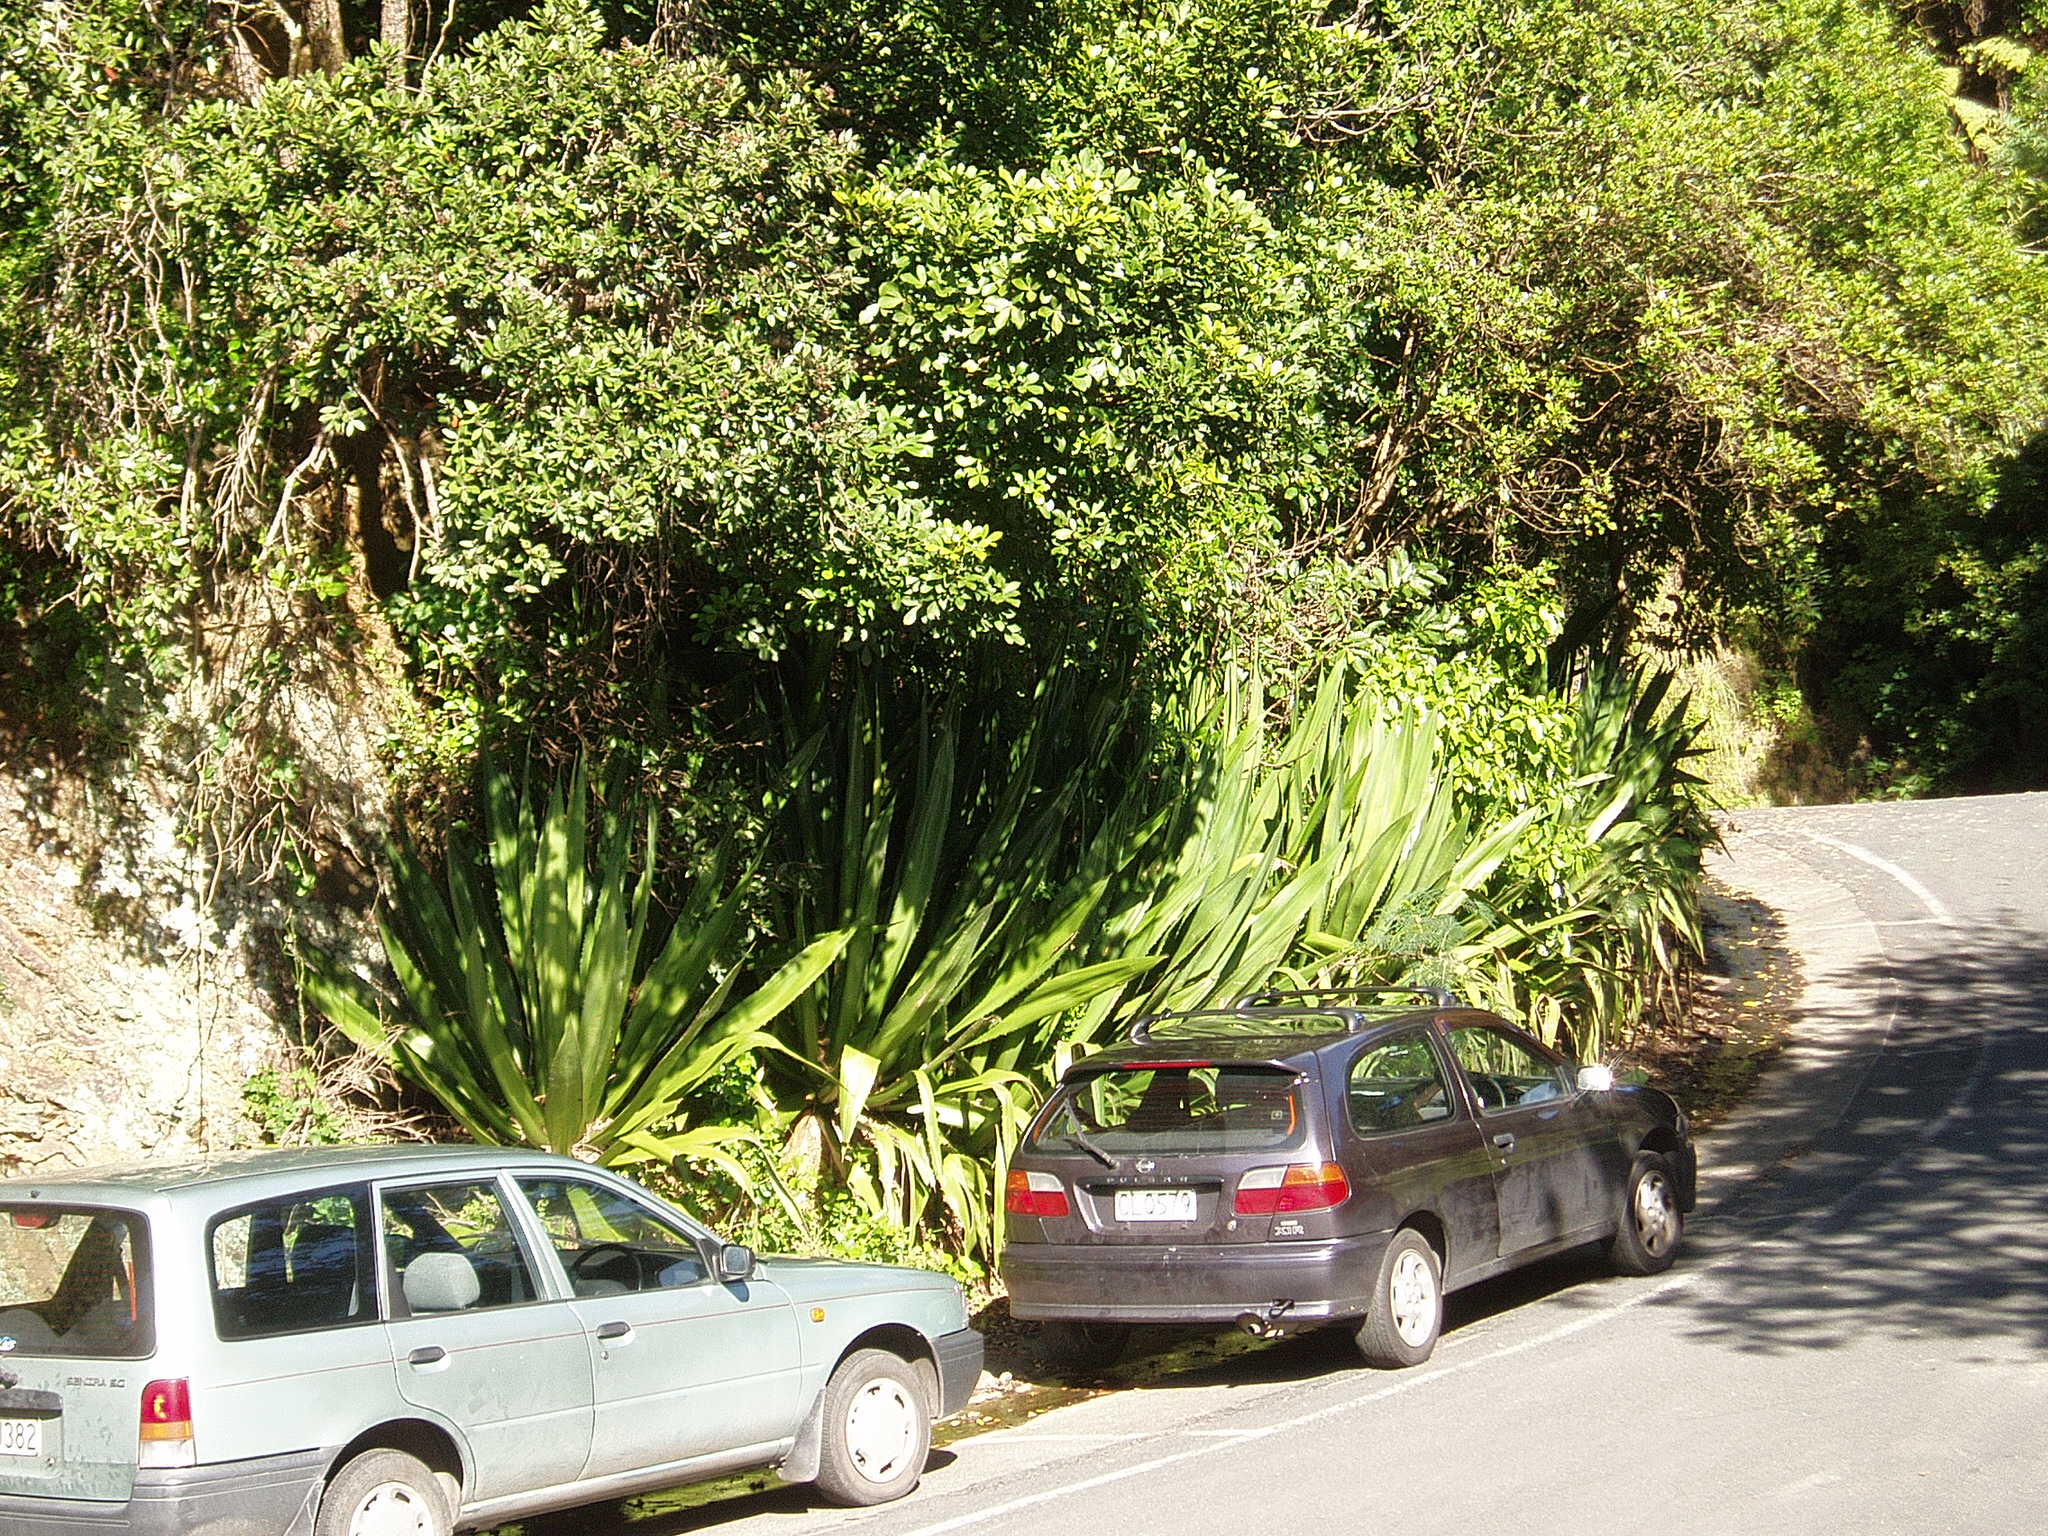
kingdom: Plantae
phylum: Tracheophyta
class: Liliopsida
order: Asparagales
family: Asparagaceae
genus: Furcraea
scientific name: Furcraea selloa
